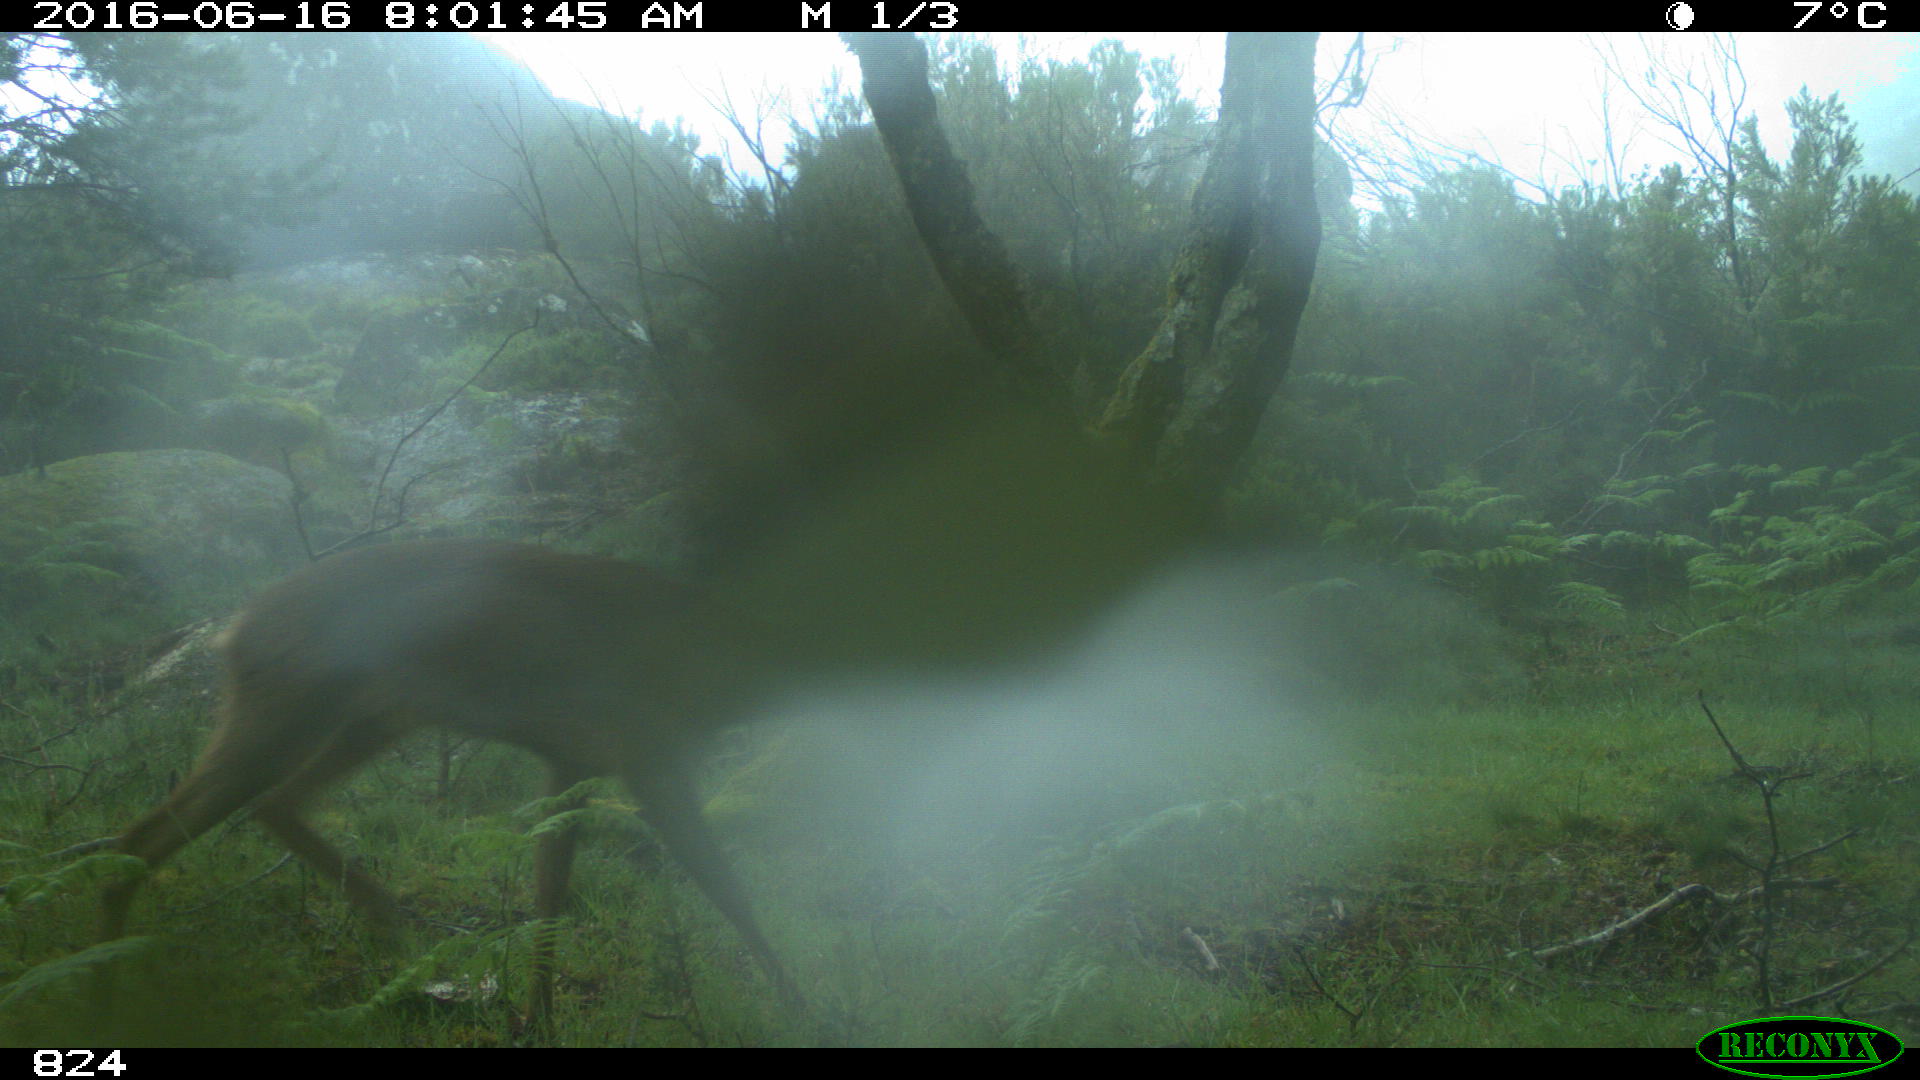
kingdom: Animalia
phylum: Chordata
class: Mammalia
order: Artiodactyla
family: Cervidae
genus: Capreolus
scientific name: Capreolus capreolus
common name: Western roe deer
